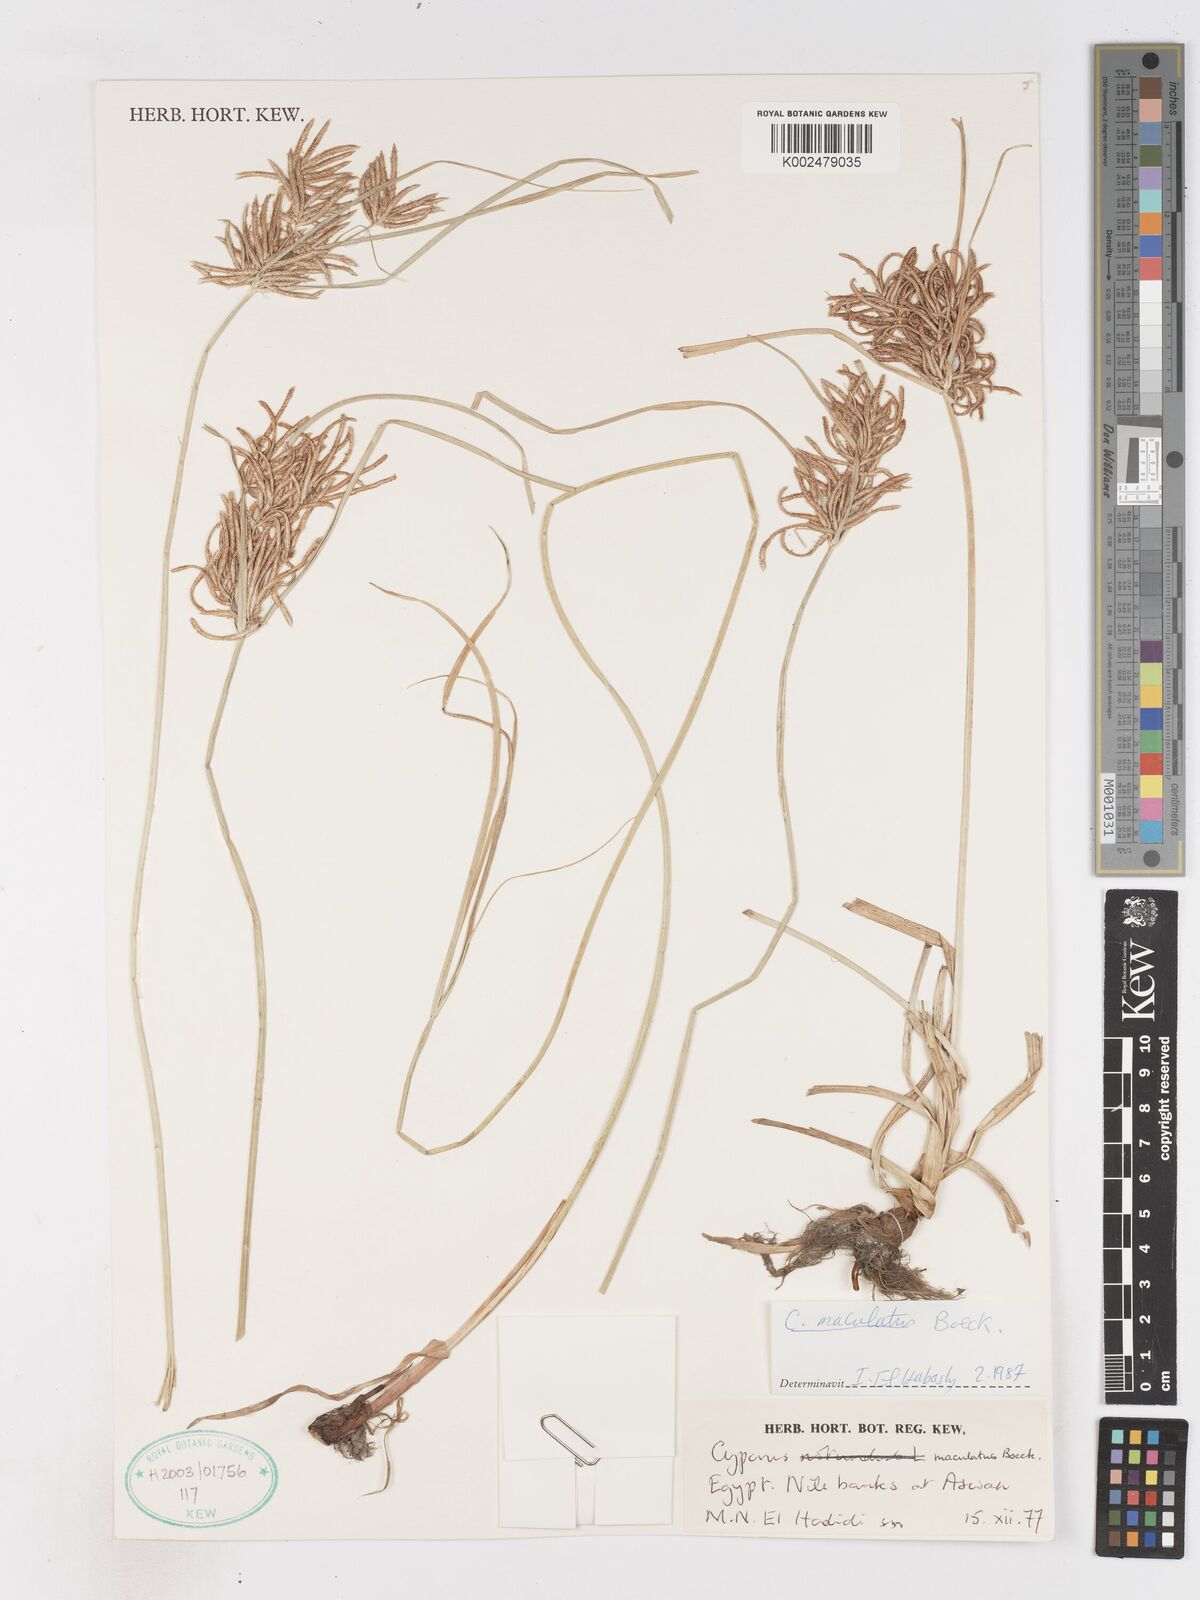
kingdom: Plantae
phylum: Tracheophyta
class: Liliopsida
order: Poales
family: Cyperaceae
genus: Cyperus
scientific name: Cyperus maculatus
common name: Maculated sedge
